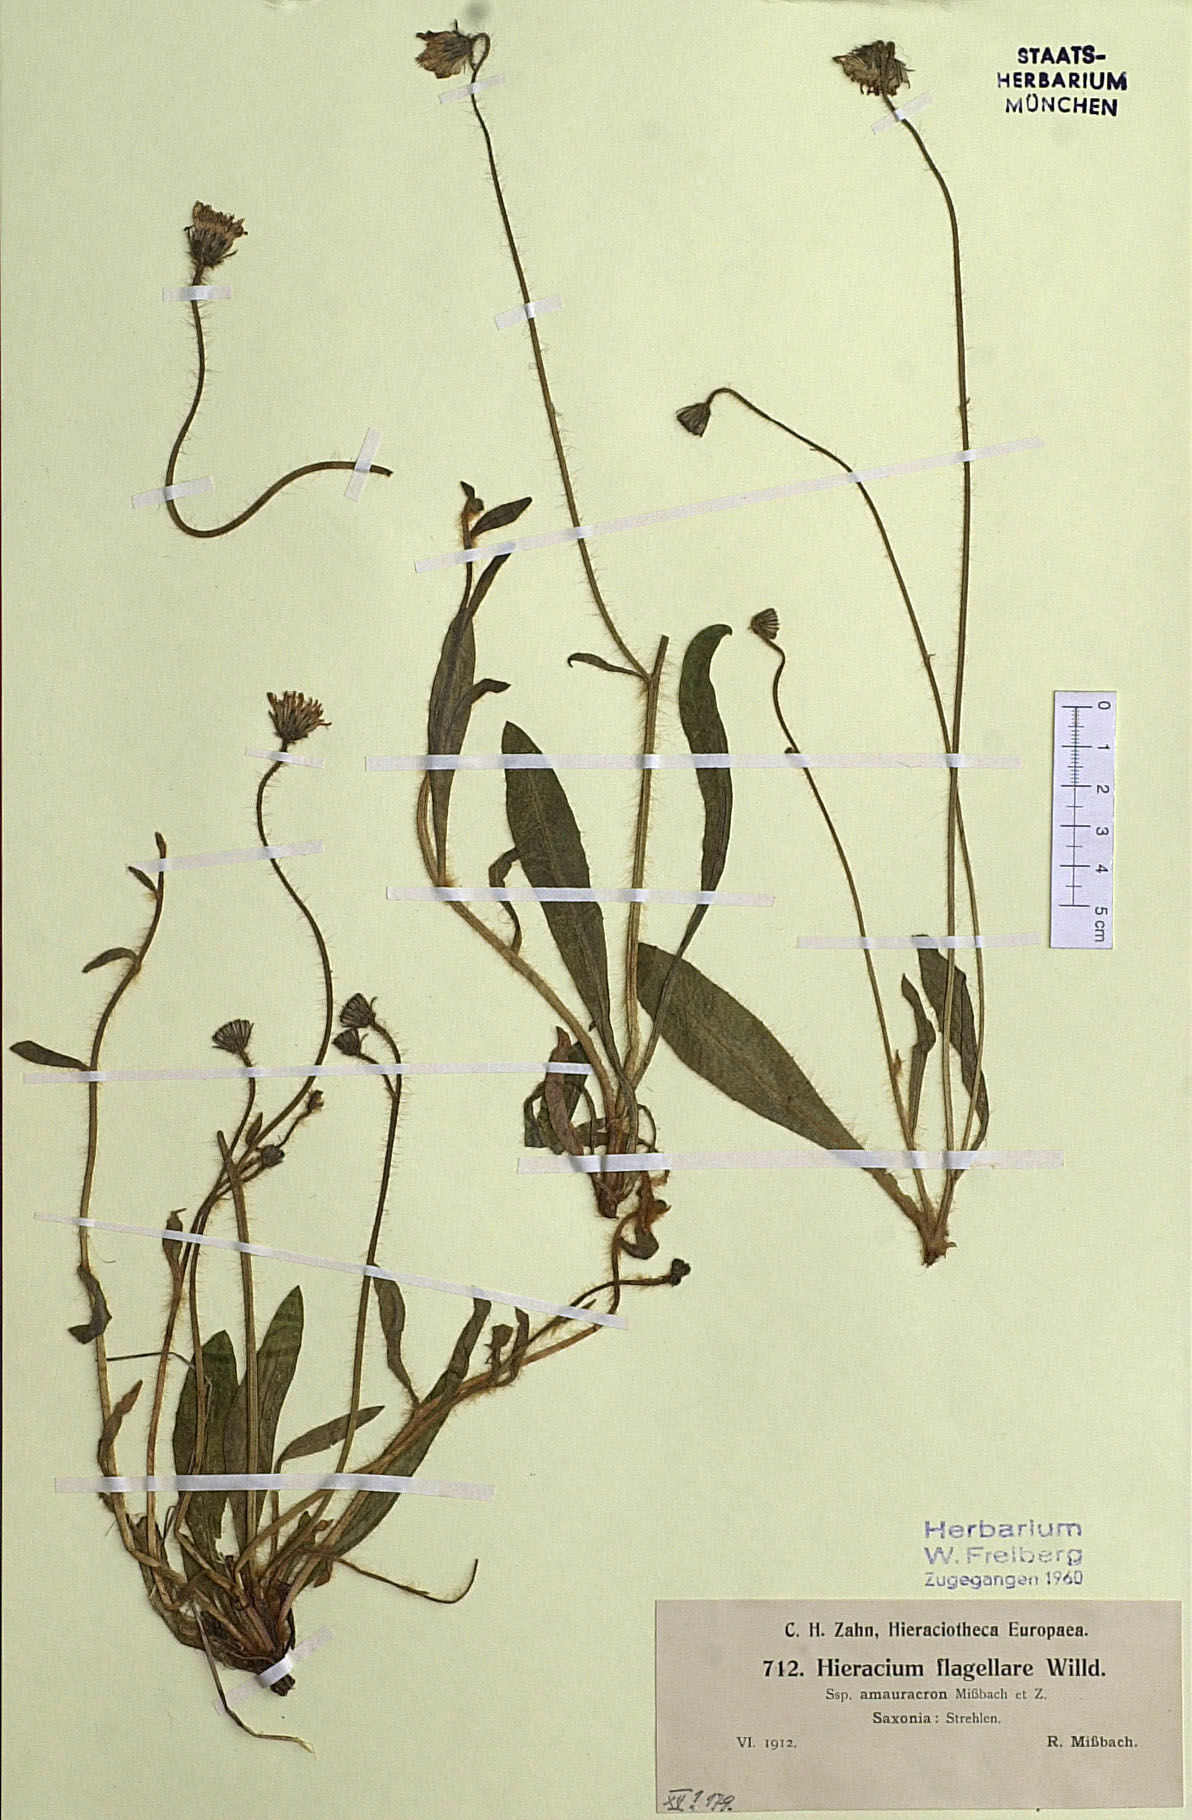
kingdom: Plantae
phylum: Tracheophyta
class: Magnoliopsida
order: Asterales
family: Asteraceae
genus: Pilosella
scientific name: Pilosella
